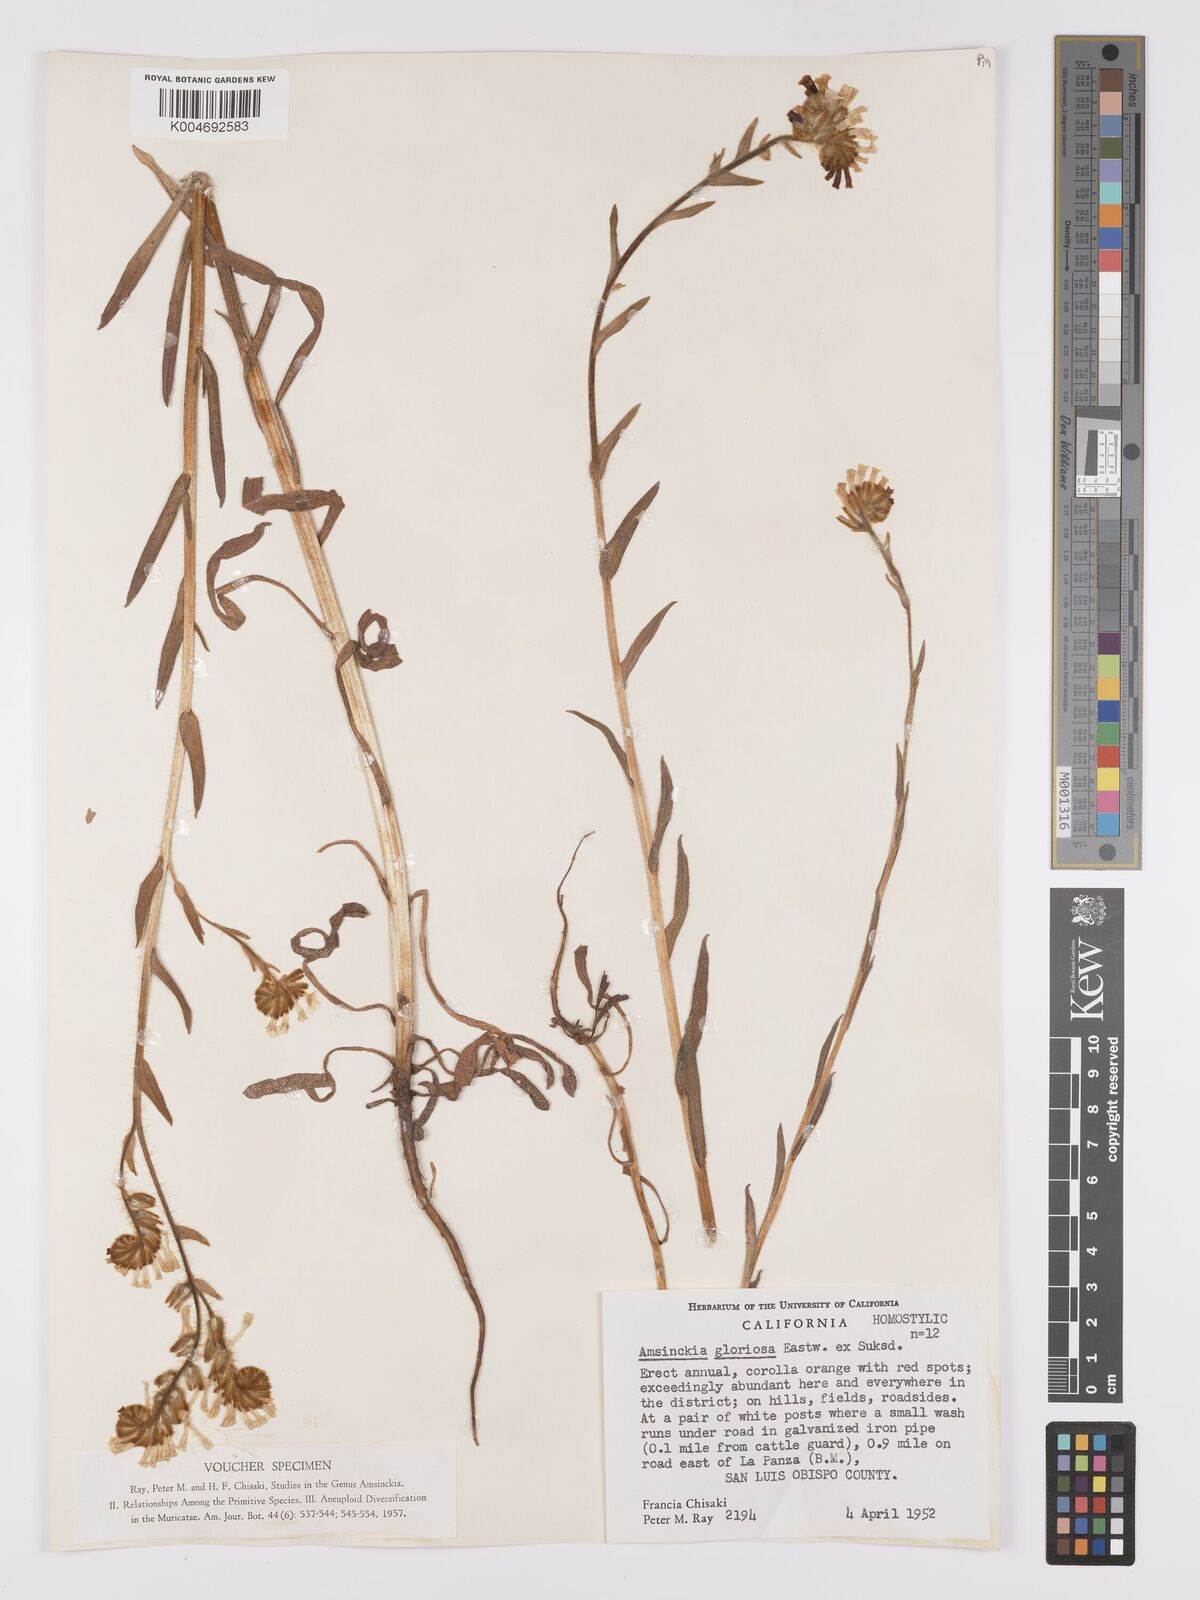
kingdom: Plantae
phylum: Tracheophyta
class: Magnoliopsida
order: Boraginales
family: Boraginaceae
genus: Amsinckia
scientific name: Amsinckia tessellata
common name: Tessellate fiddleneck
